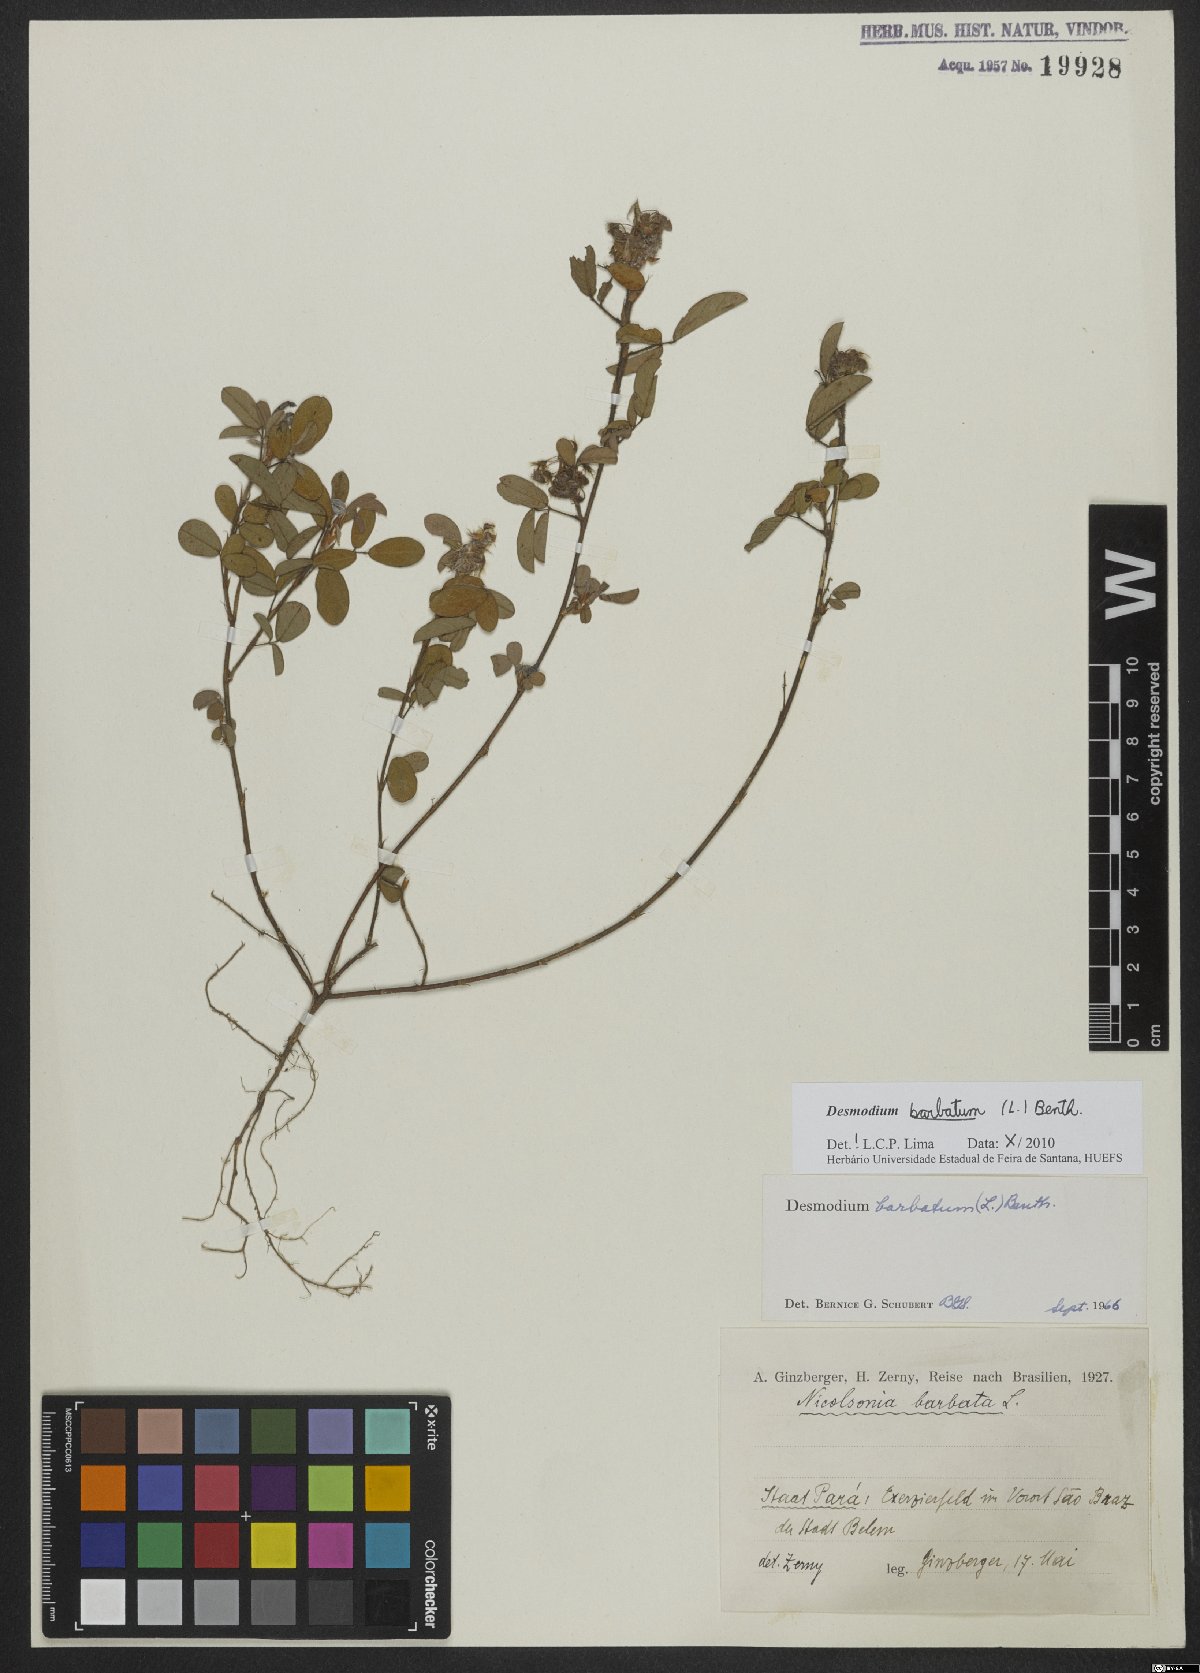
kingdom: Plantae
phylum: Tracheophyta
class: Magnoliopsida
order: Fabales
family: Fabaceae
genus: Grona
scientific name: Grona barbata
